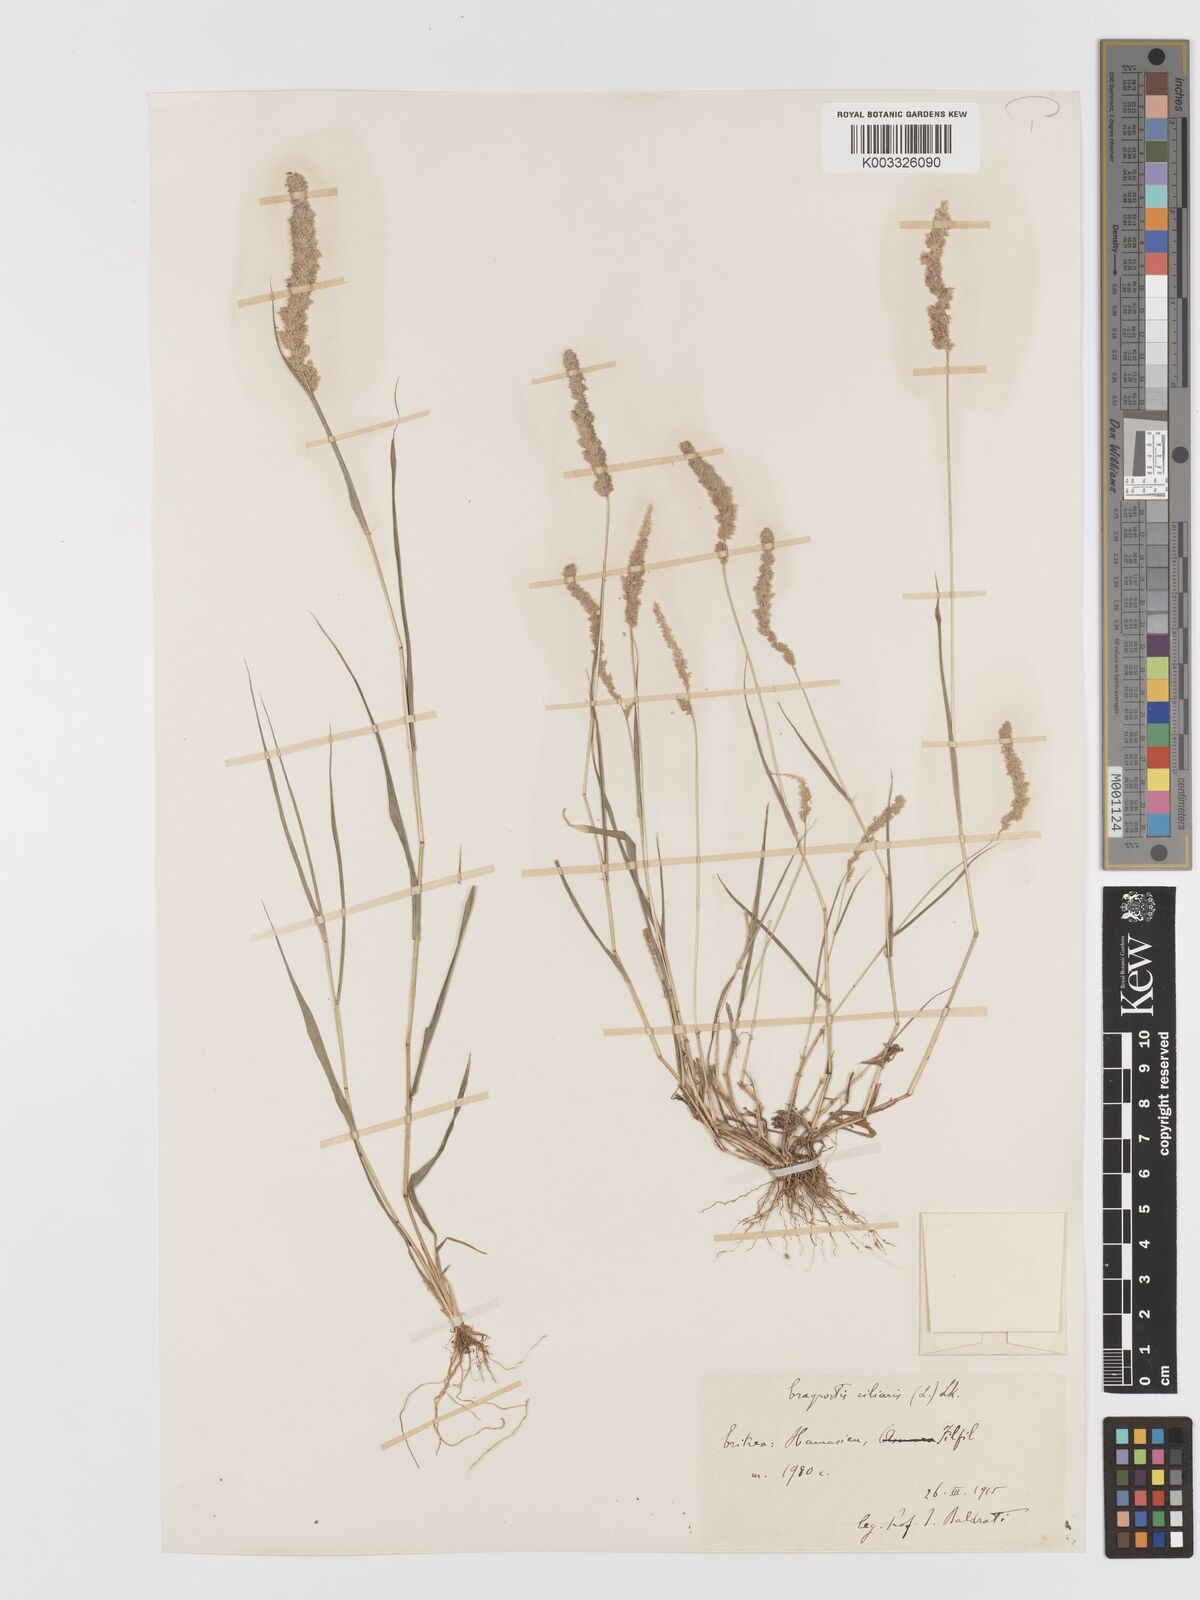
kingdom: Plantae
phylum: Tracheophyta
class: Liliopsida
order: Poales
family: Poaceae
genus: Eragrostis
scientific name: Eragrostis ciliaris
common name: Gophertail lovegrass
